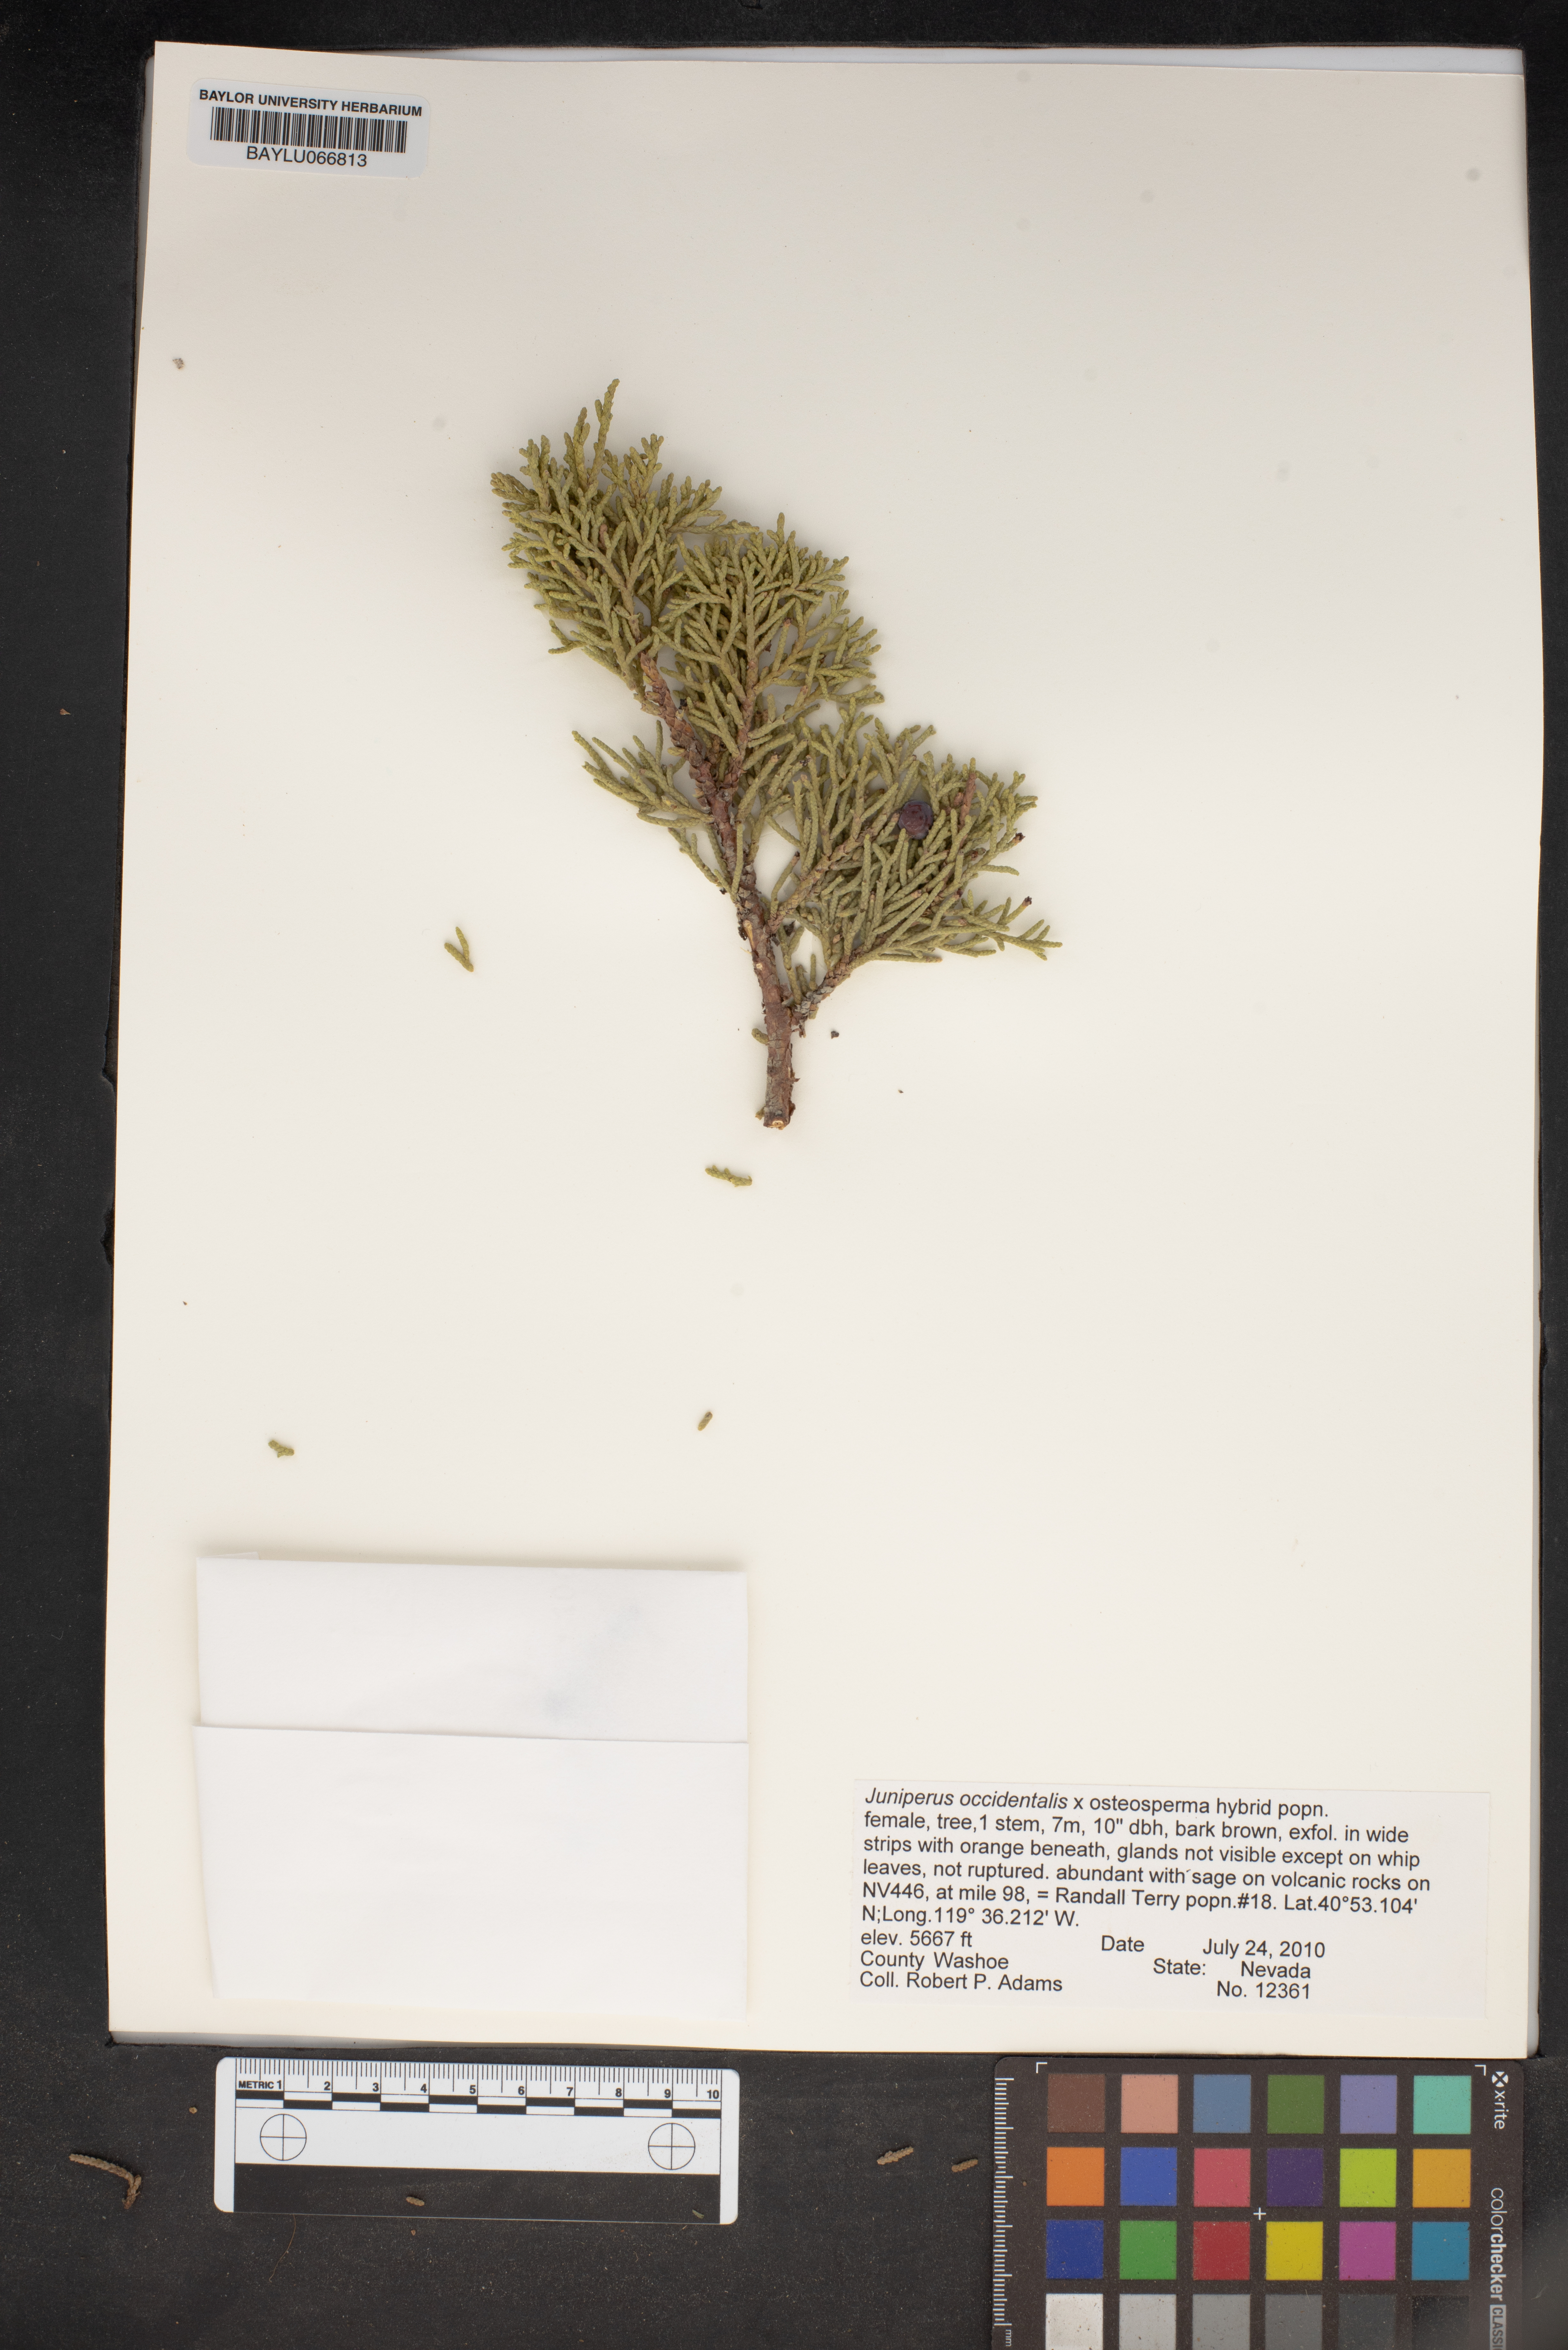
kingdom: Plantae
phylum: Tracheophyta
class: Pinopsida
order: Pinales
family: Cupressaceae
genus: Juniperus
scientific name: Juniperus occidentalis
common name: Western juniper
